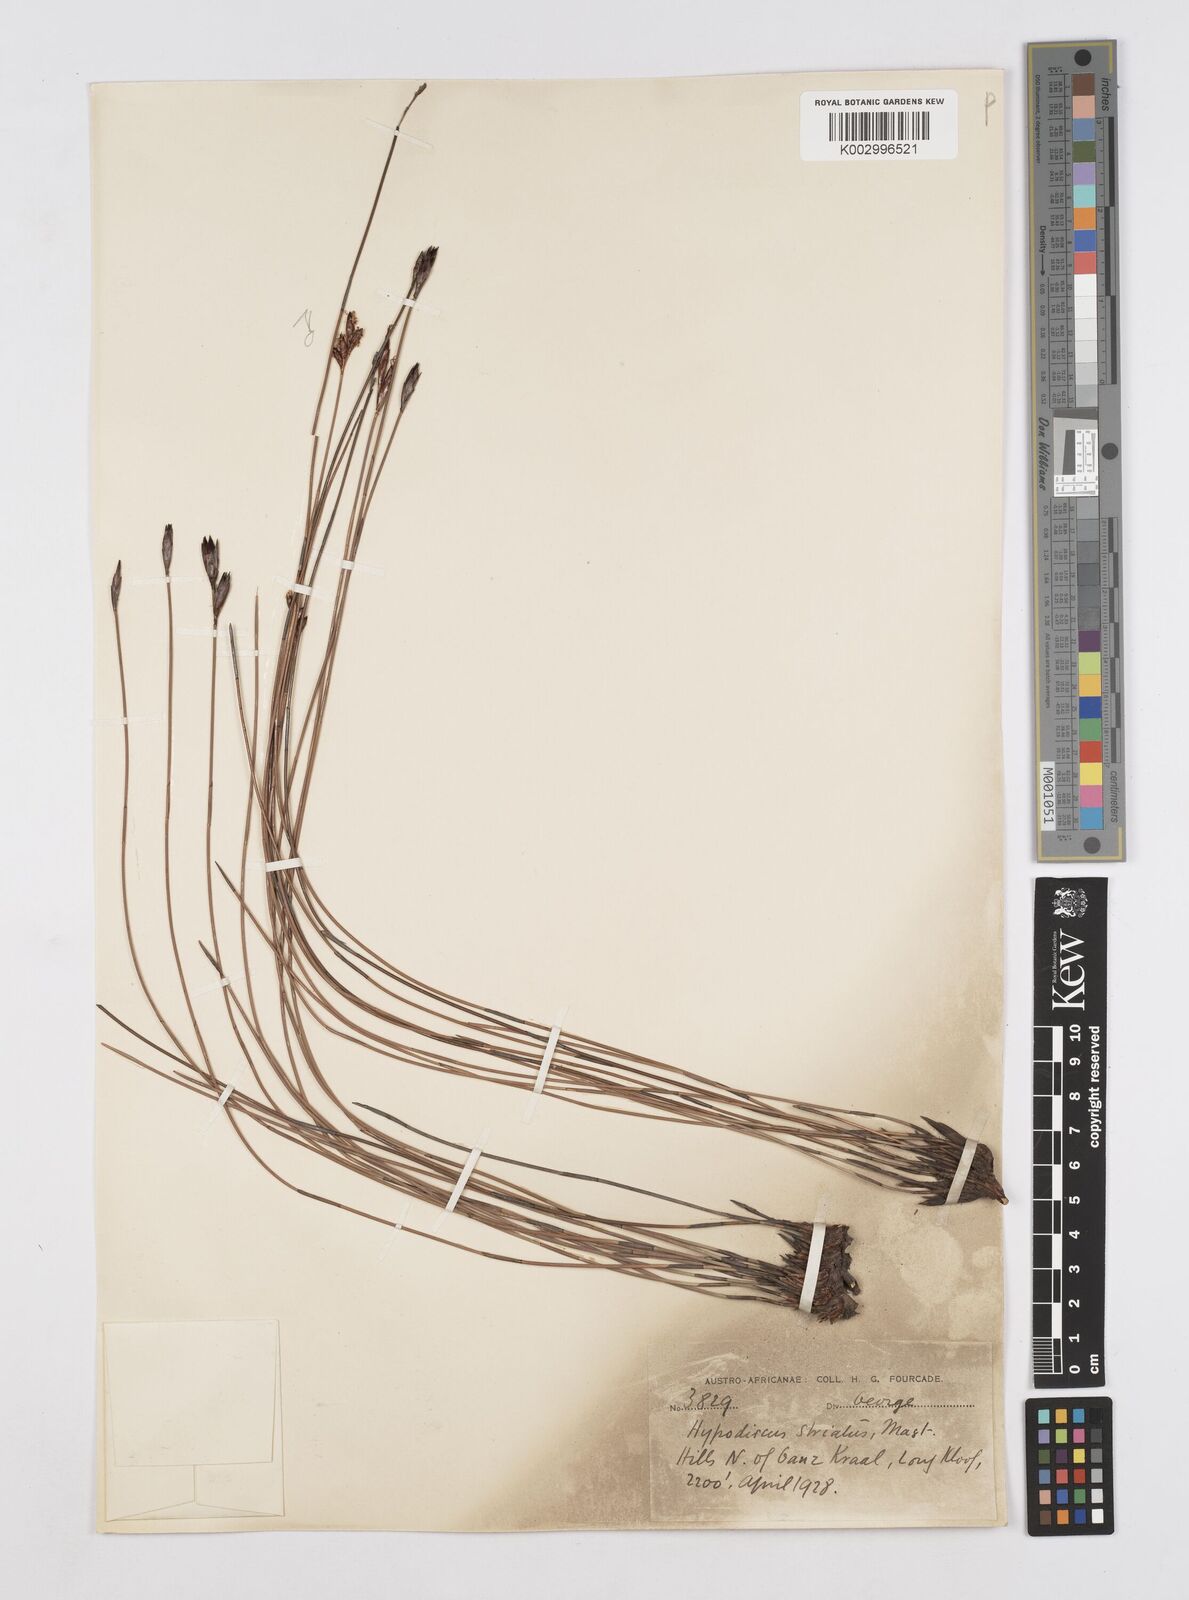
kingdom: Plantae
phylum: Tracheophyta
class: Liliopsida
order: Poales
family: Restionaceae
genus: Hypodiscus
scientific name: Hypodiscus striatus
